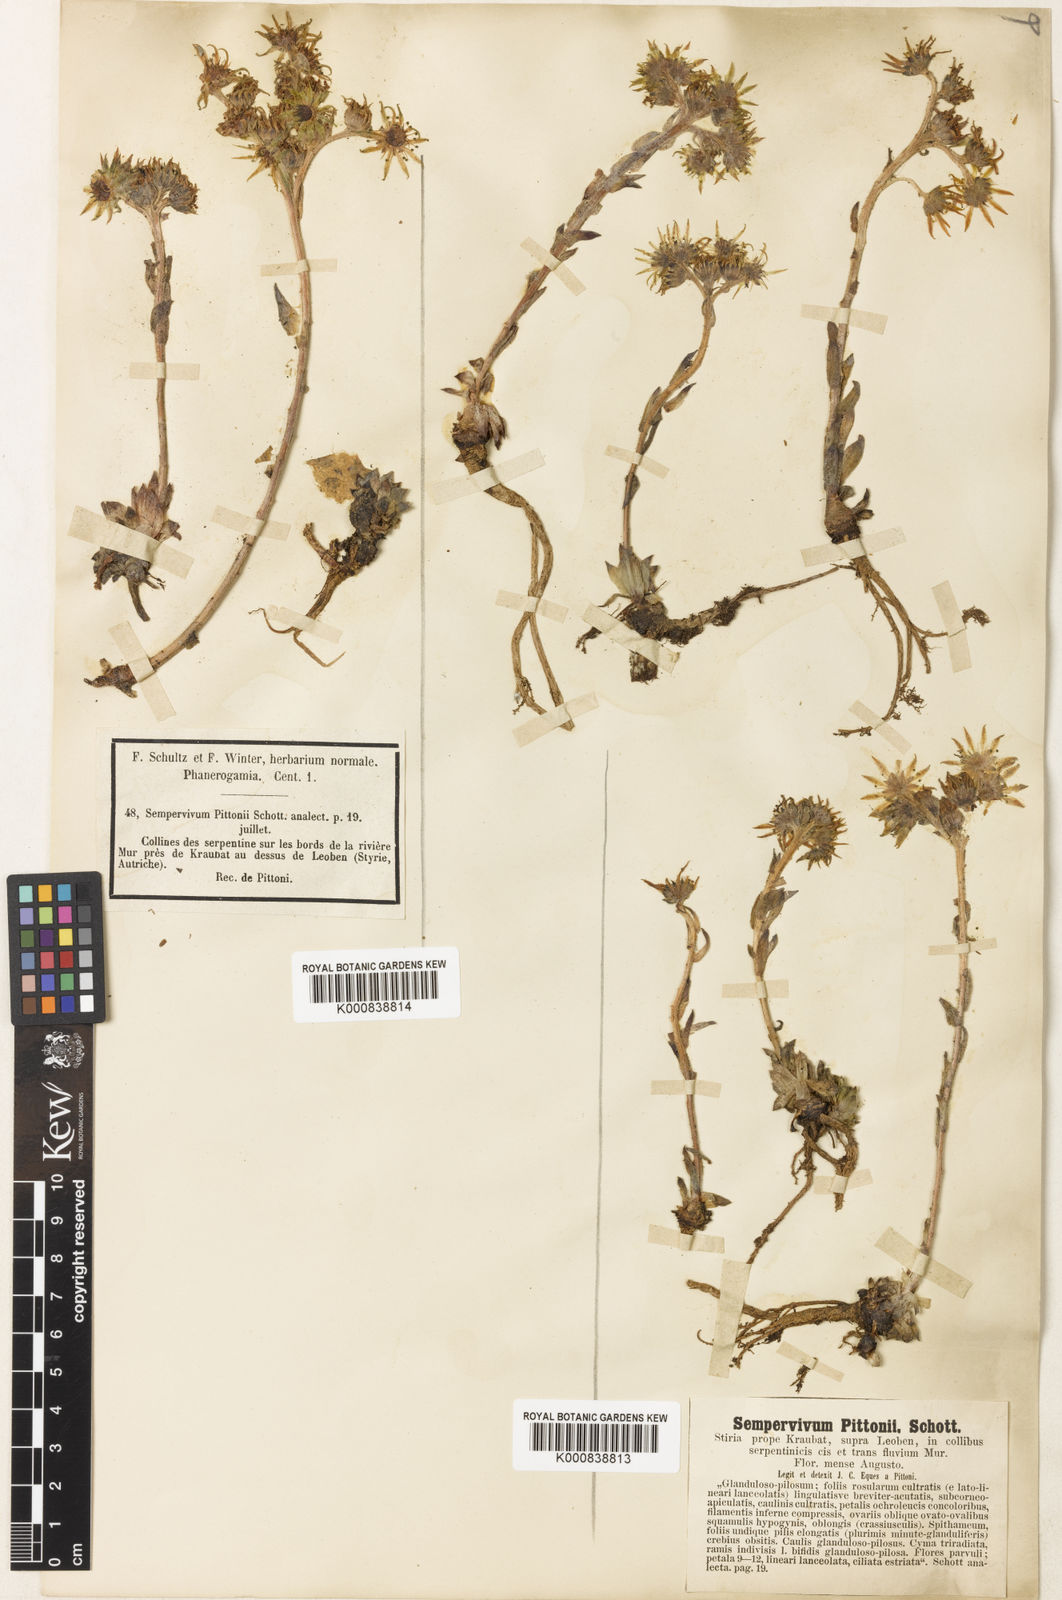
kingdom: Plantae
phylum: Tracheophyta
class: Magnoliopsida
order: Saxifragales
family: Crassulaceae
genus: Sempervivum
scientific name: Sempervivum pittonii
